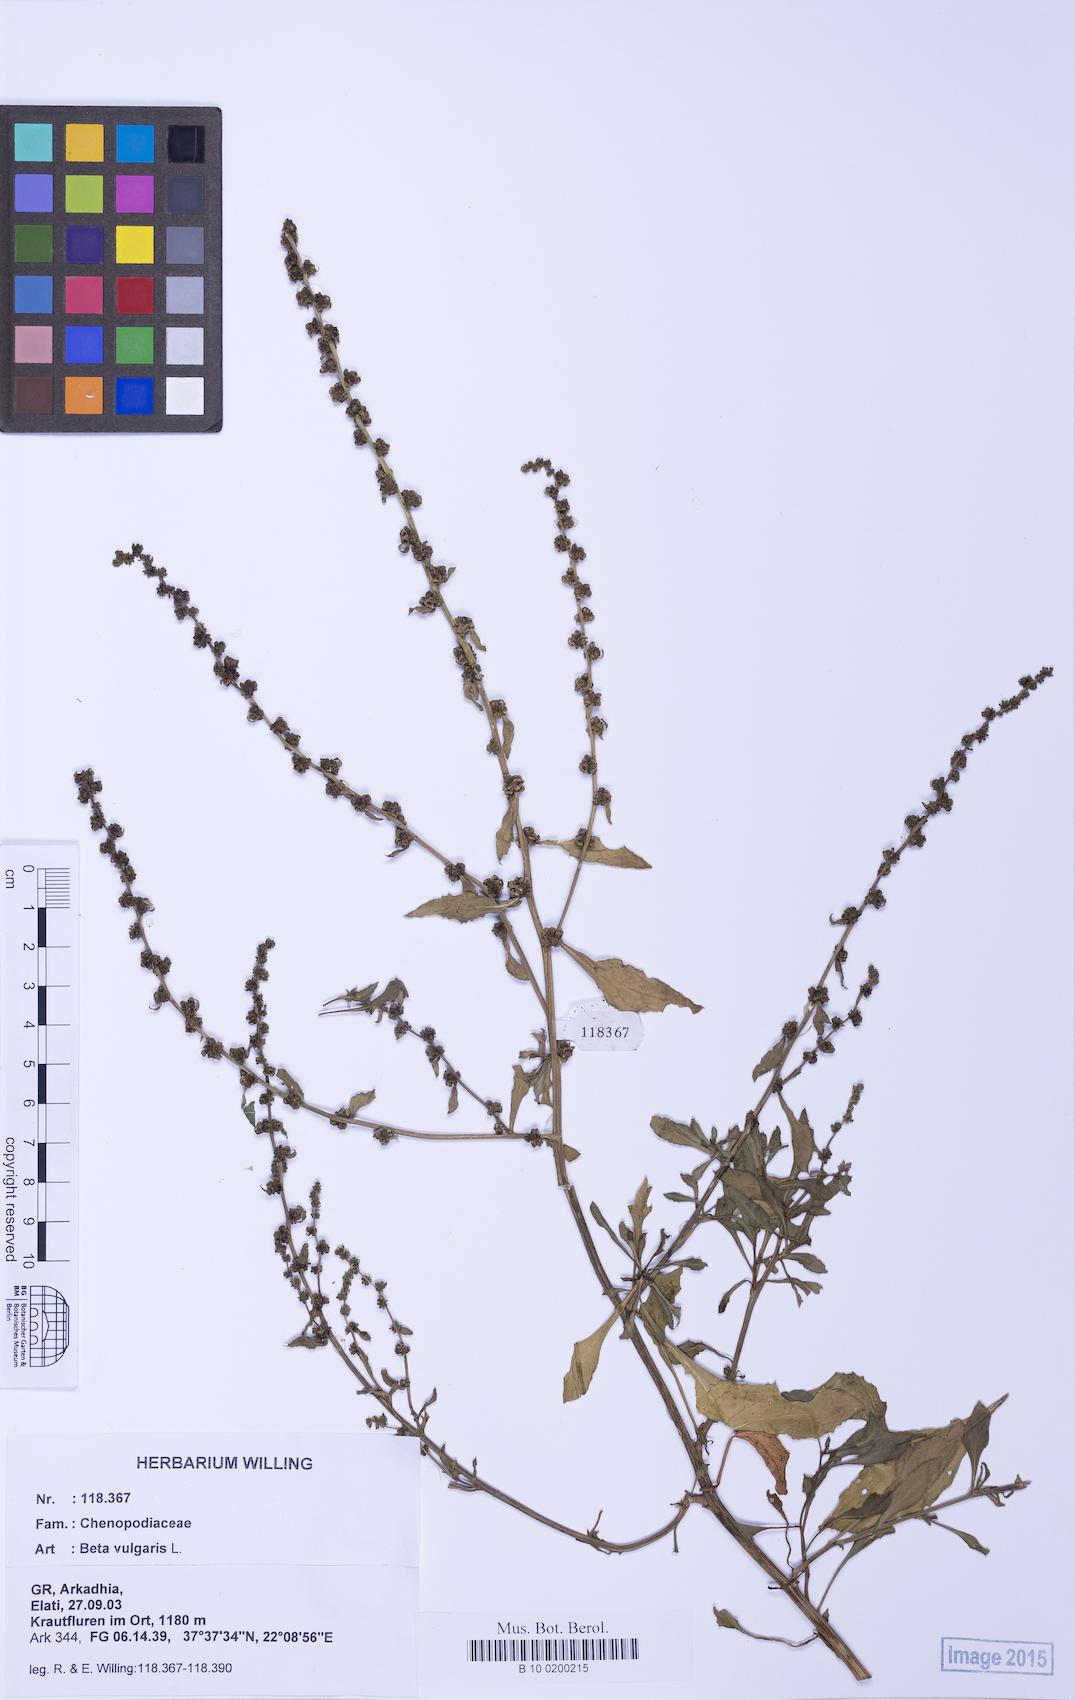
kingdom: Plantae
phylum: Tracheophyta
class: Magnoliopsida
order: Caryophyllales
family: Amaranthaceae
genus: Beta
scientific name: Beta maritima
